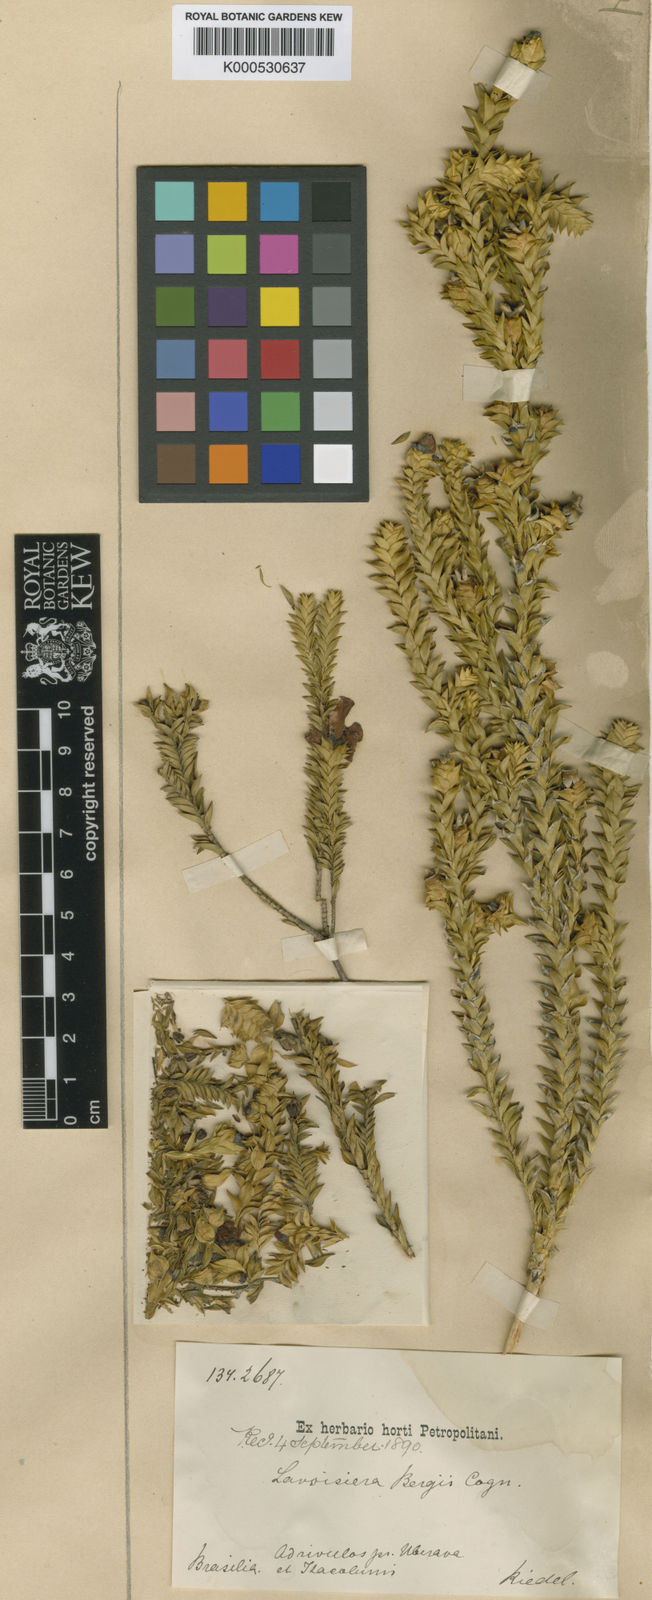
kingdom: Plantae
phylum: Tracheophyta
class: Magnoliopsida
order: Myrtales
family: Melastomataceae
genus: Microlicia
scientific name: Microlicia cataphracta
